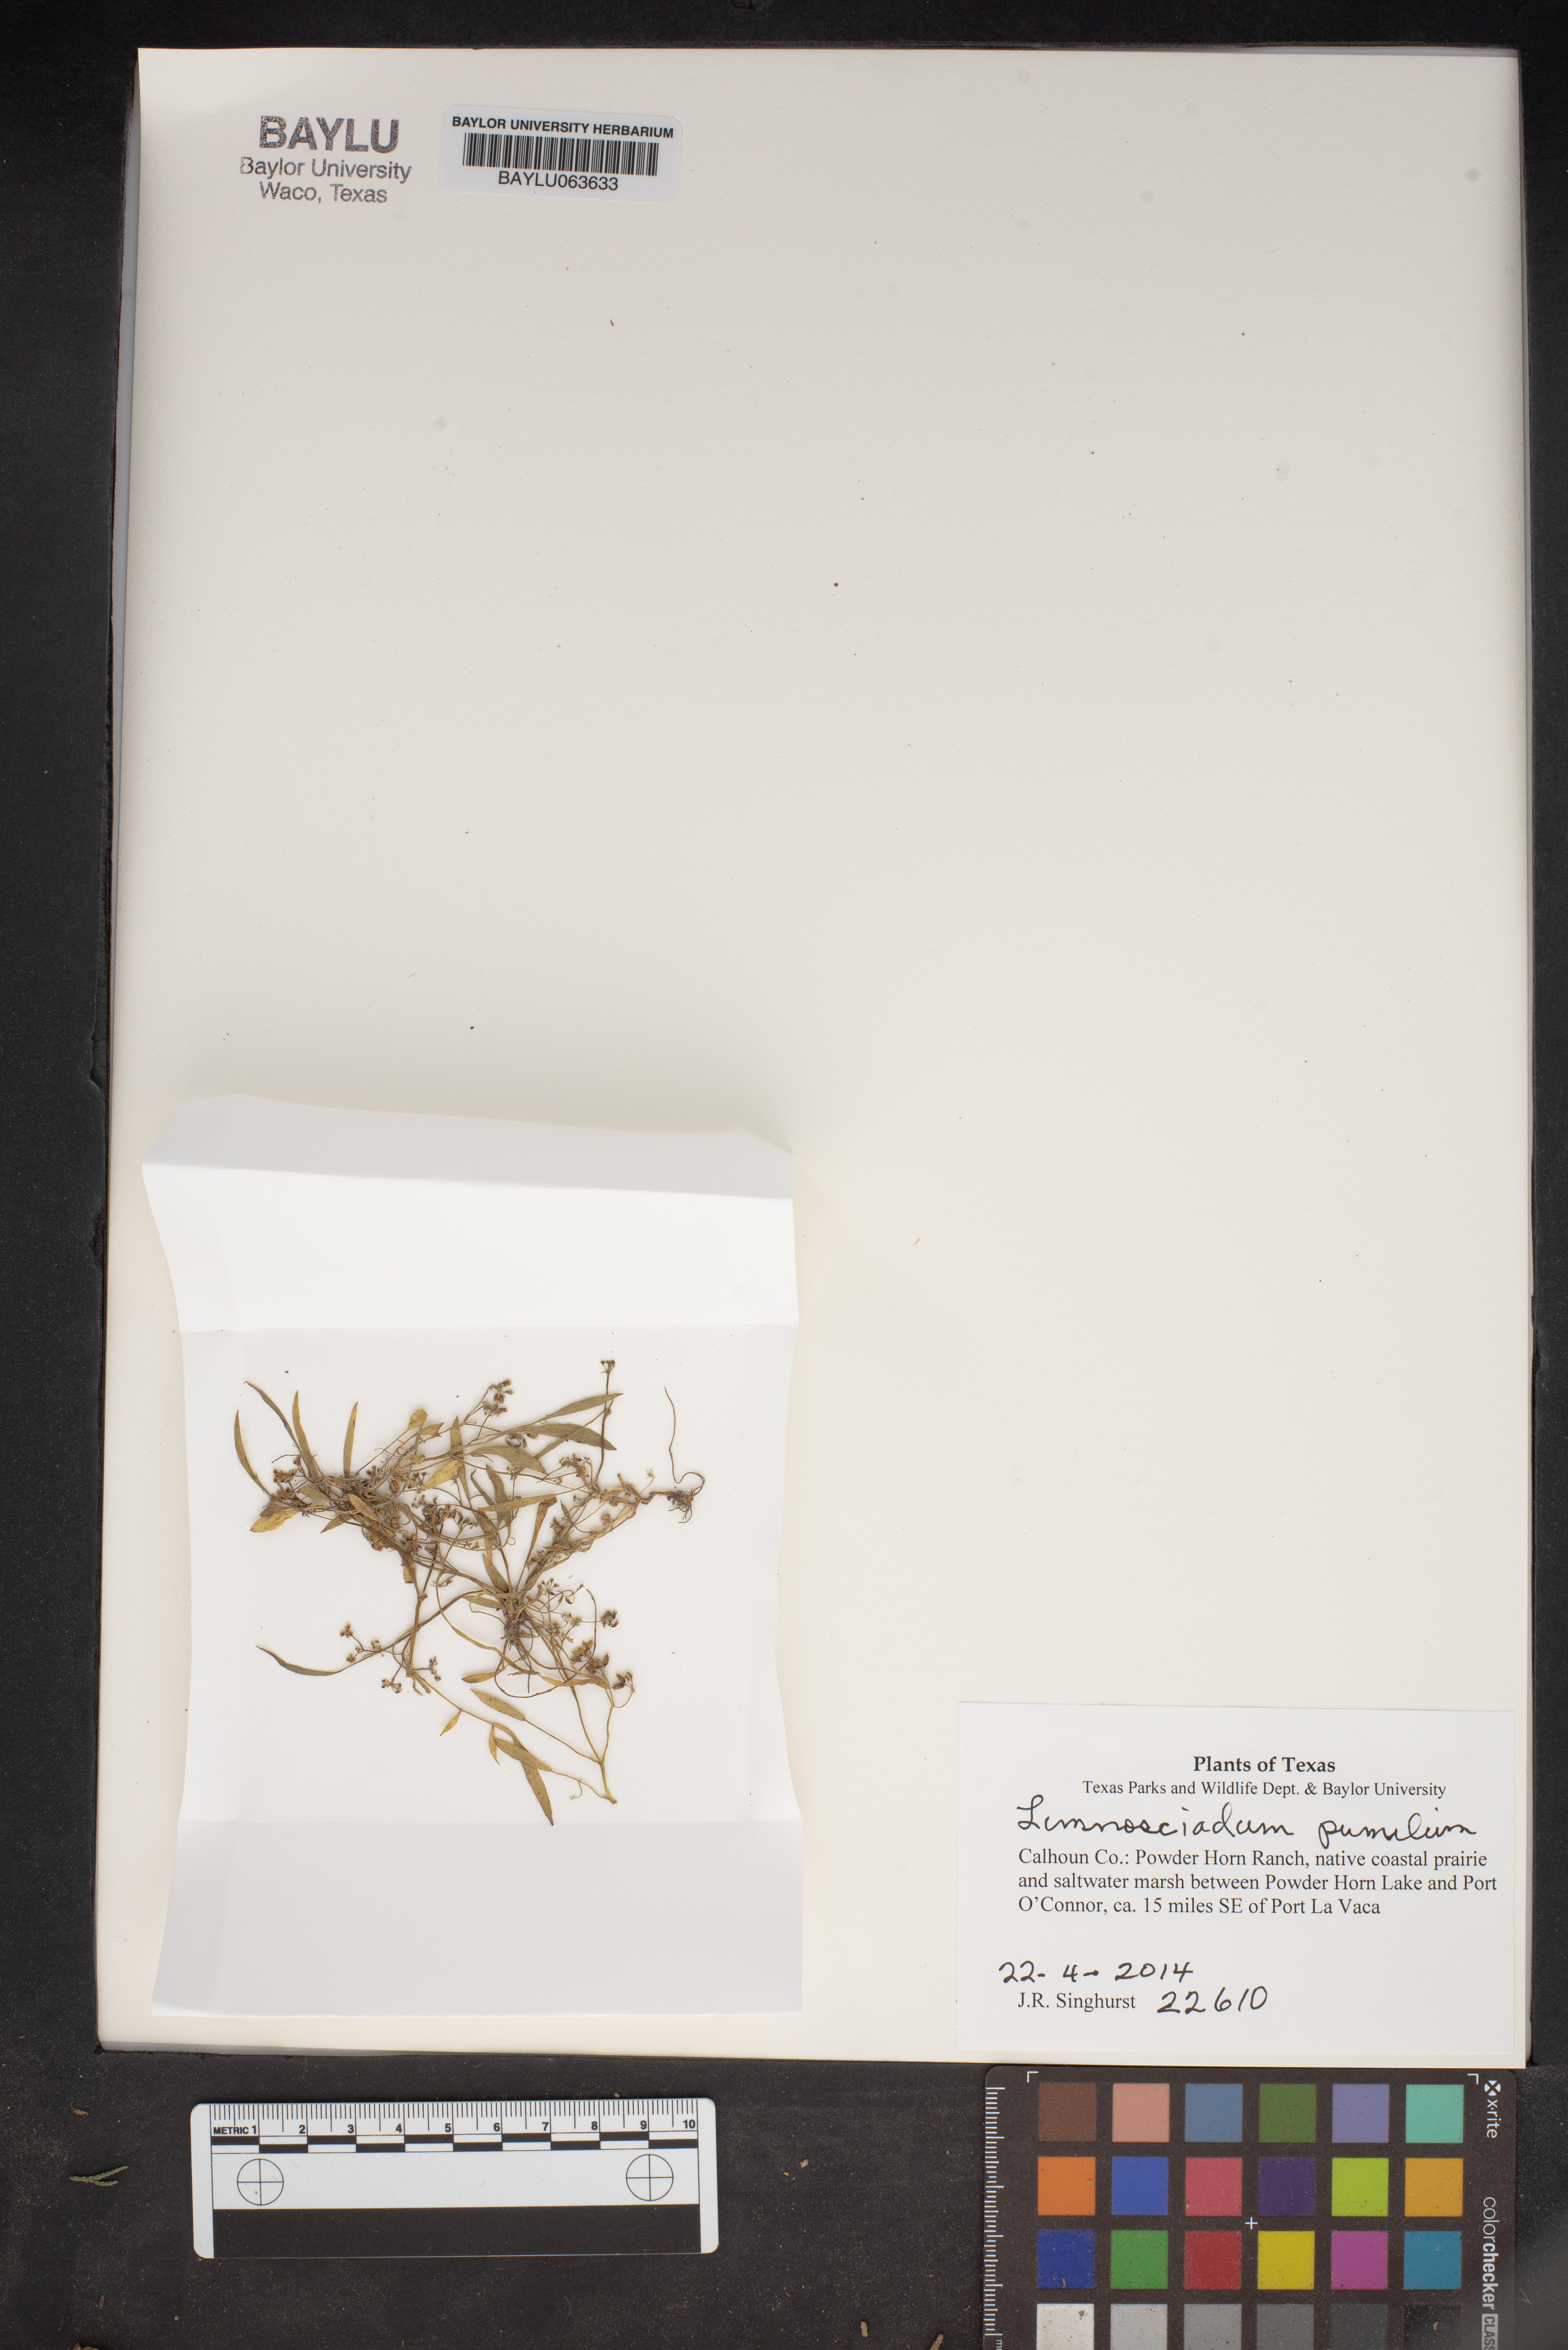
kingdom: Plantae
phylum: Tracheophyta
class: Magnoliopsida
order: Apiales
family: Apiaceae
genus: Limnosciadium
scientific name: Limnosciadium pinnatum
